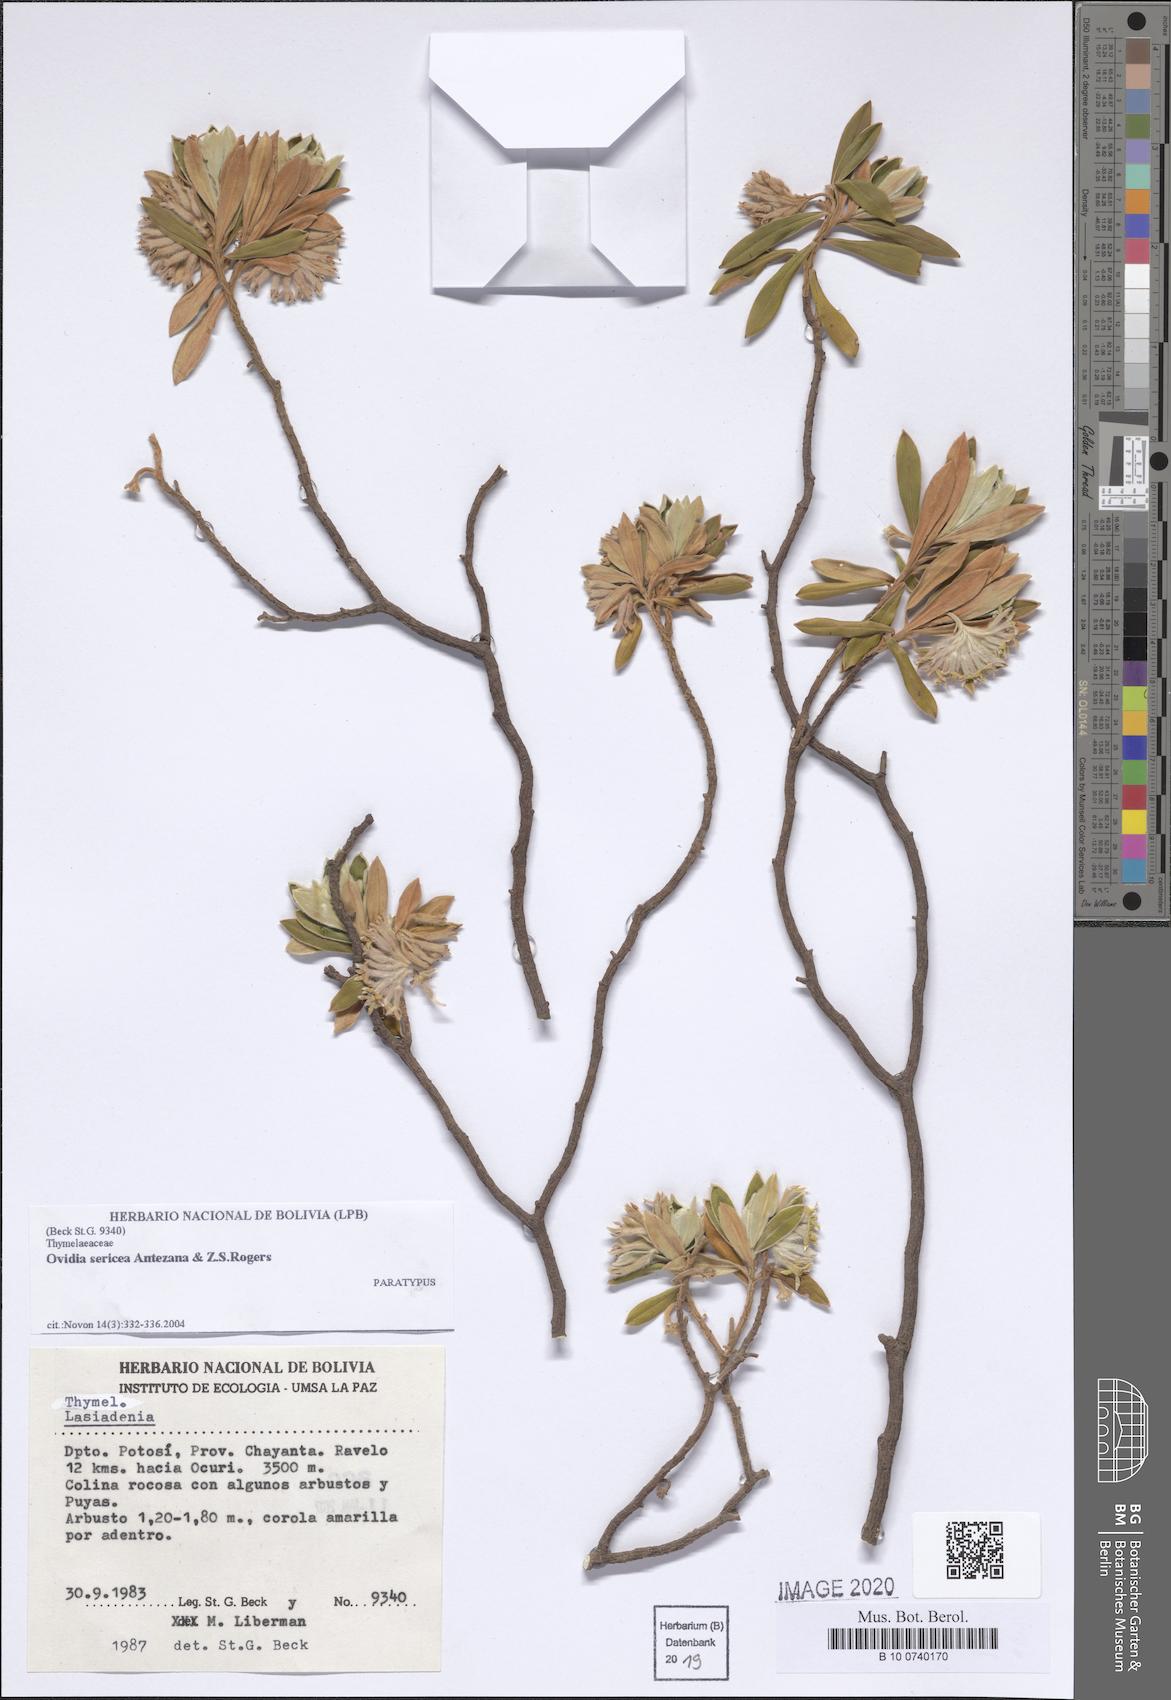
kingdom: Plantae
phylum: Tracheophyta
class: Magnoliopsida
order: Malvales
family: Thymelaeaceae
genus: Ovidia
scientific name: Ovidia sericea
